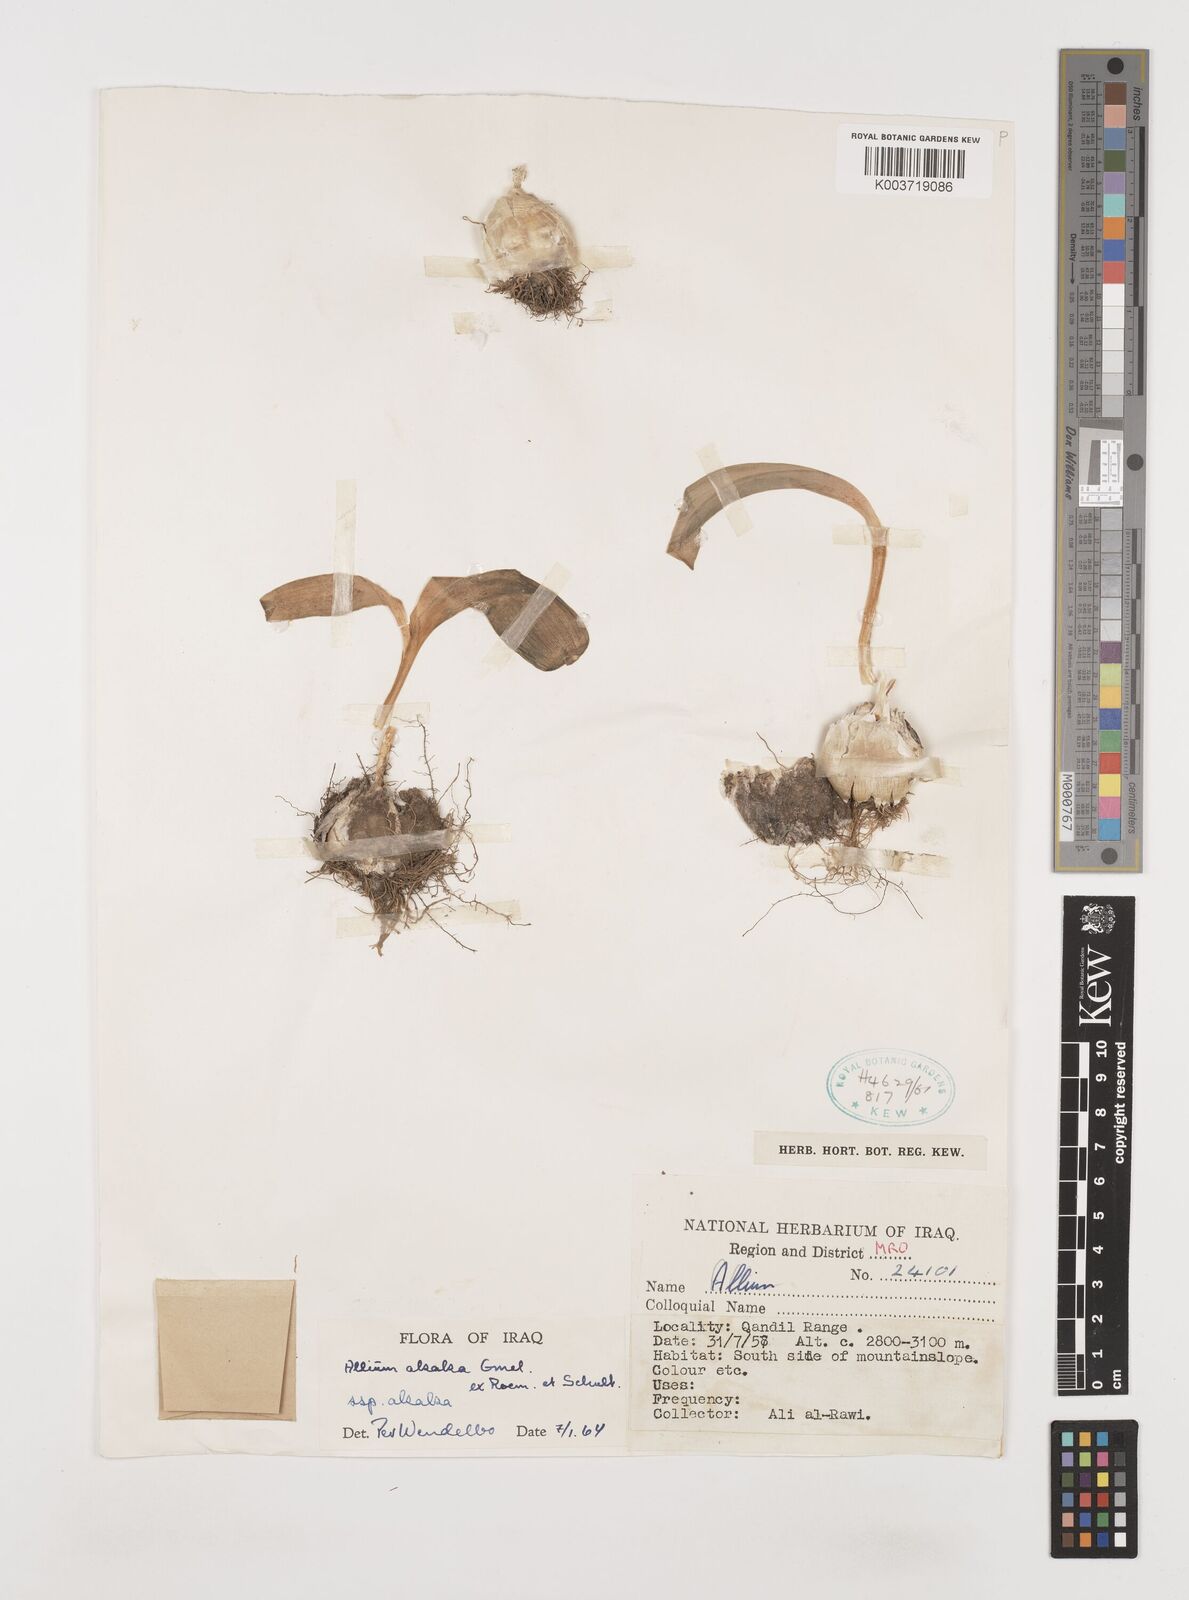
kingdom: Plantae
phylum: Tracheophyta
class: Liliopsida
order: Asparagales
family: Amaryllidaceae
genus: Allium
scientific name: Allium akaka
